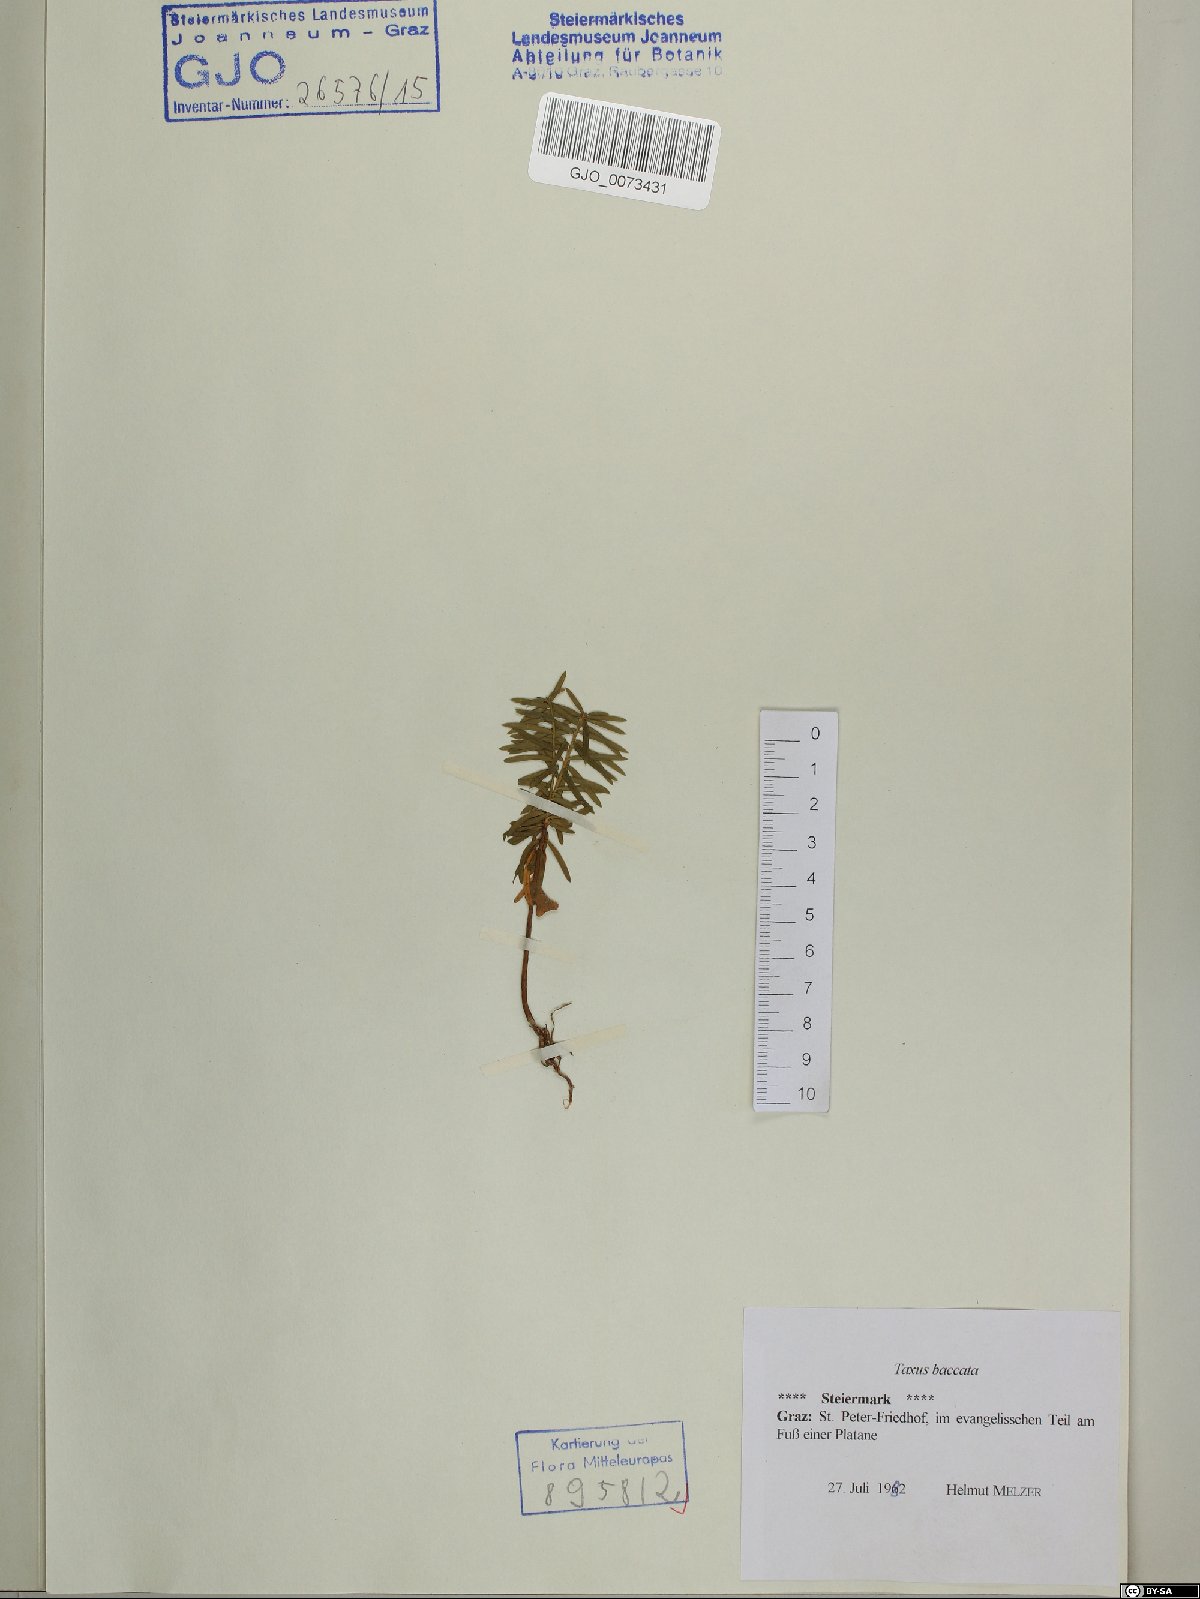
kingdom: Plantae
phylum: Tracheophyta
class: Pinopsida
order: Pinales
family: Taxaceae
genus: Taxus
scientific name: Taxus baccata
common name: Yew
